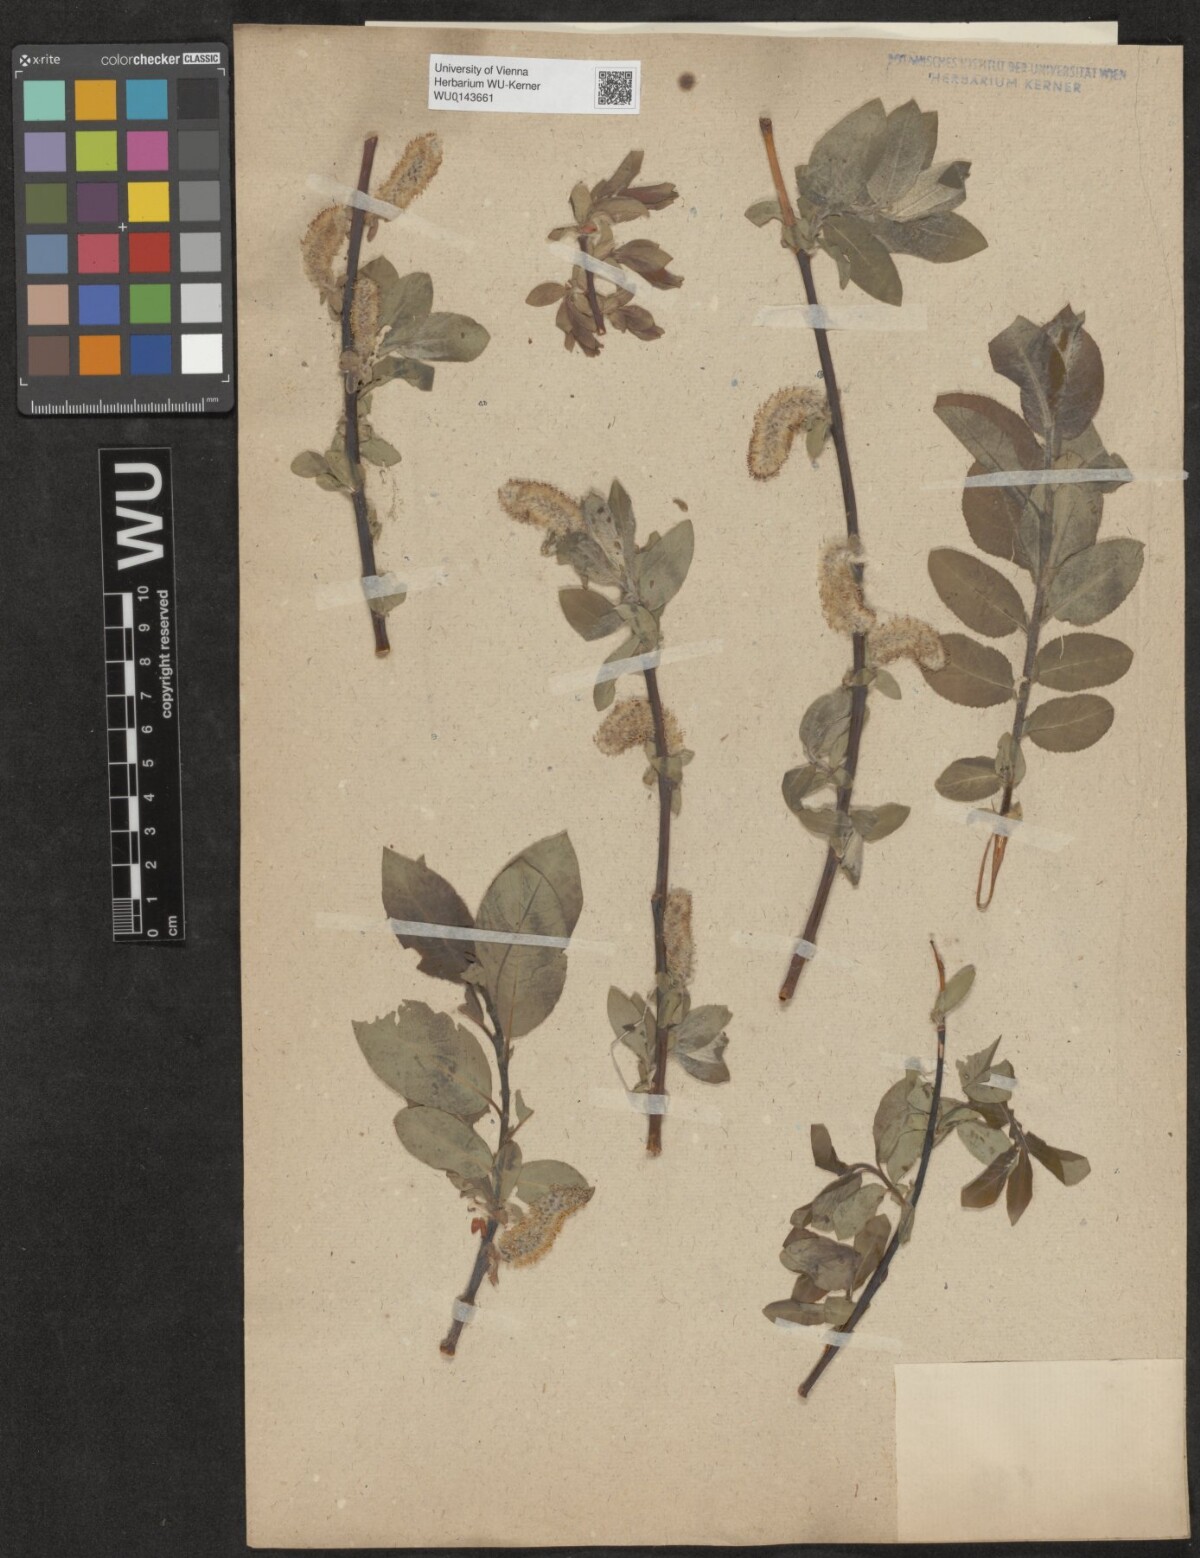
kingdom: Plantae
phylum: Tracheophyta
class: Magnoliopsida
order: Malpighiales
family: Salicaceae
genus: Salix
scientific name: Salix
